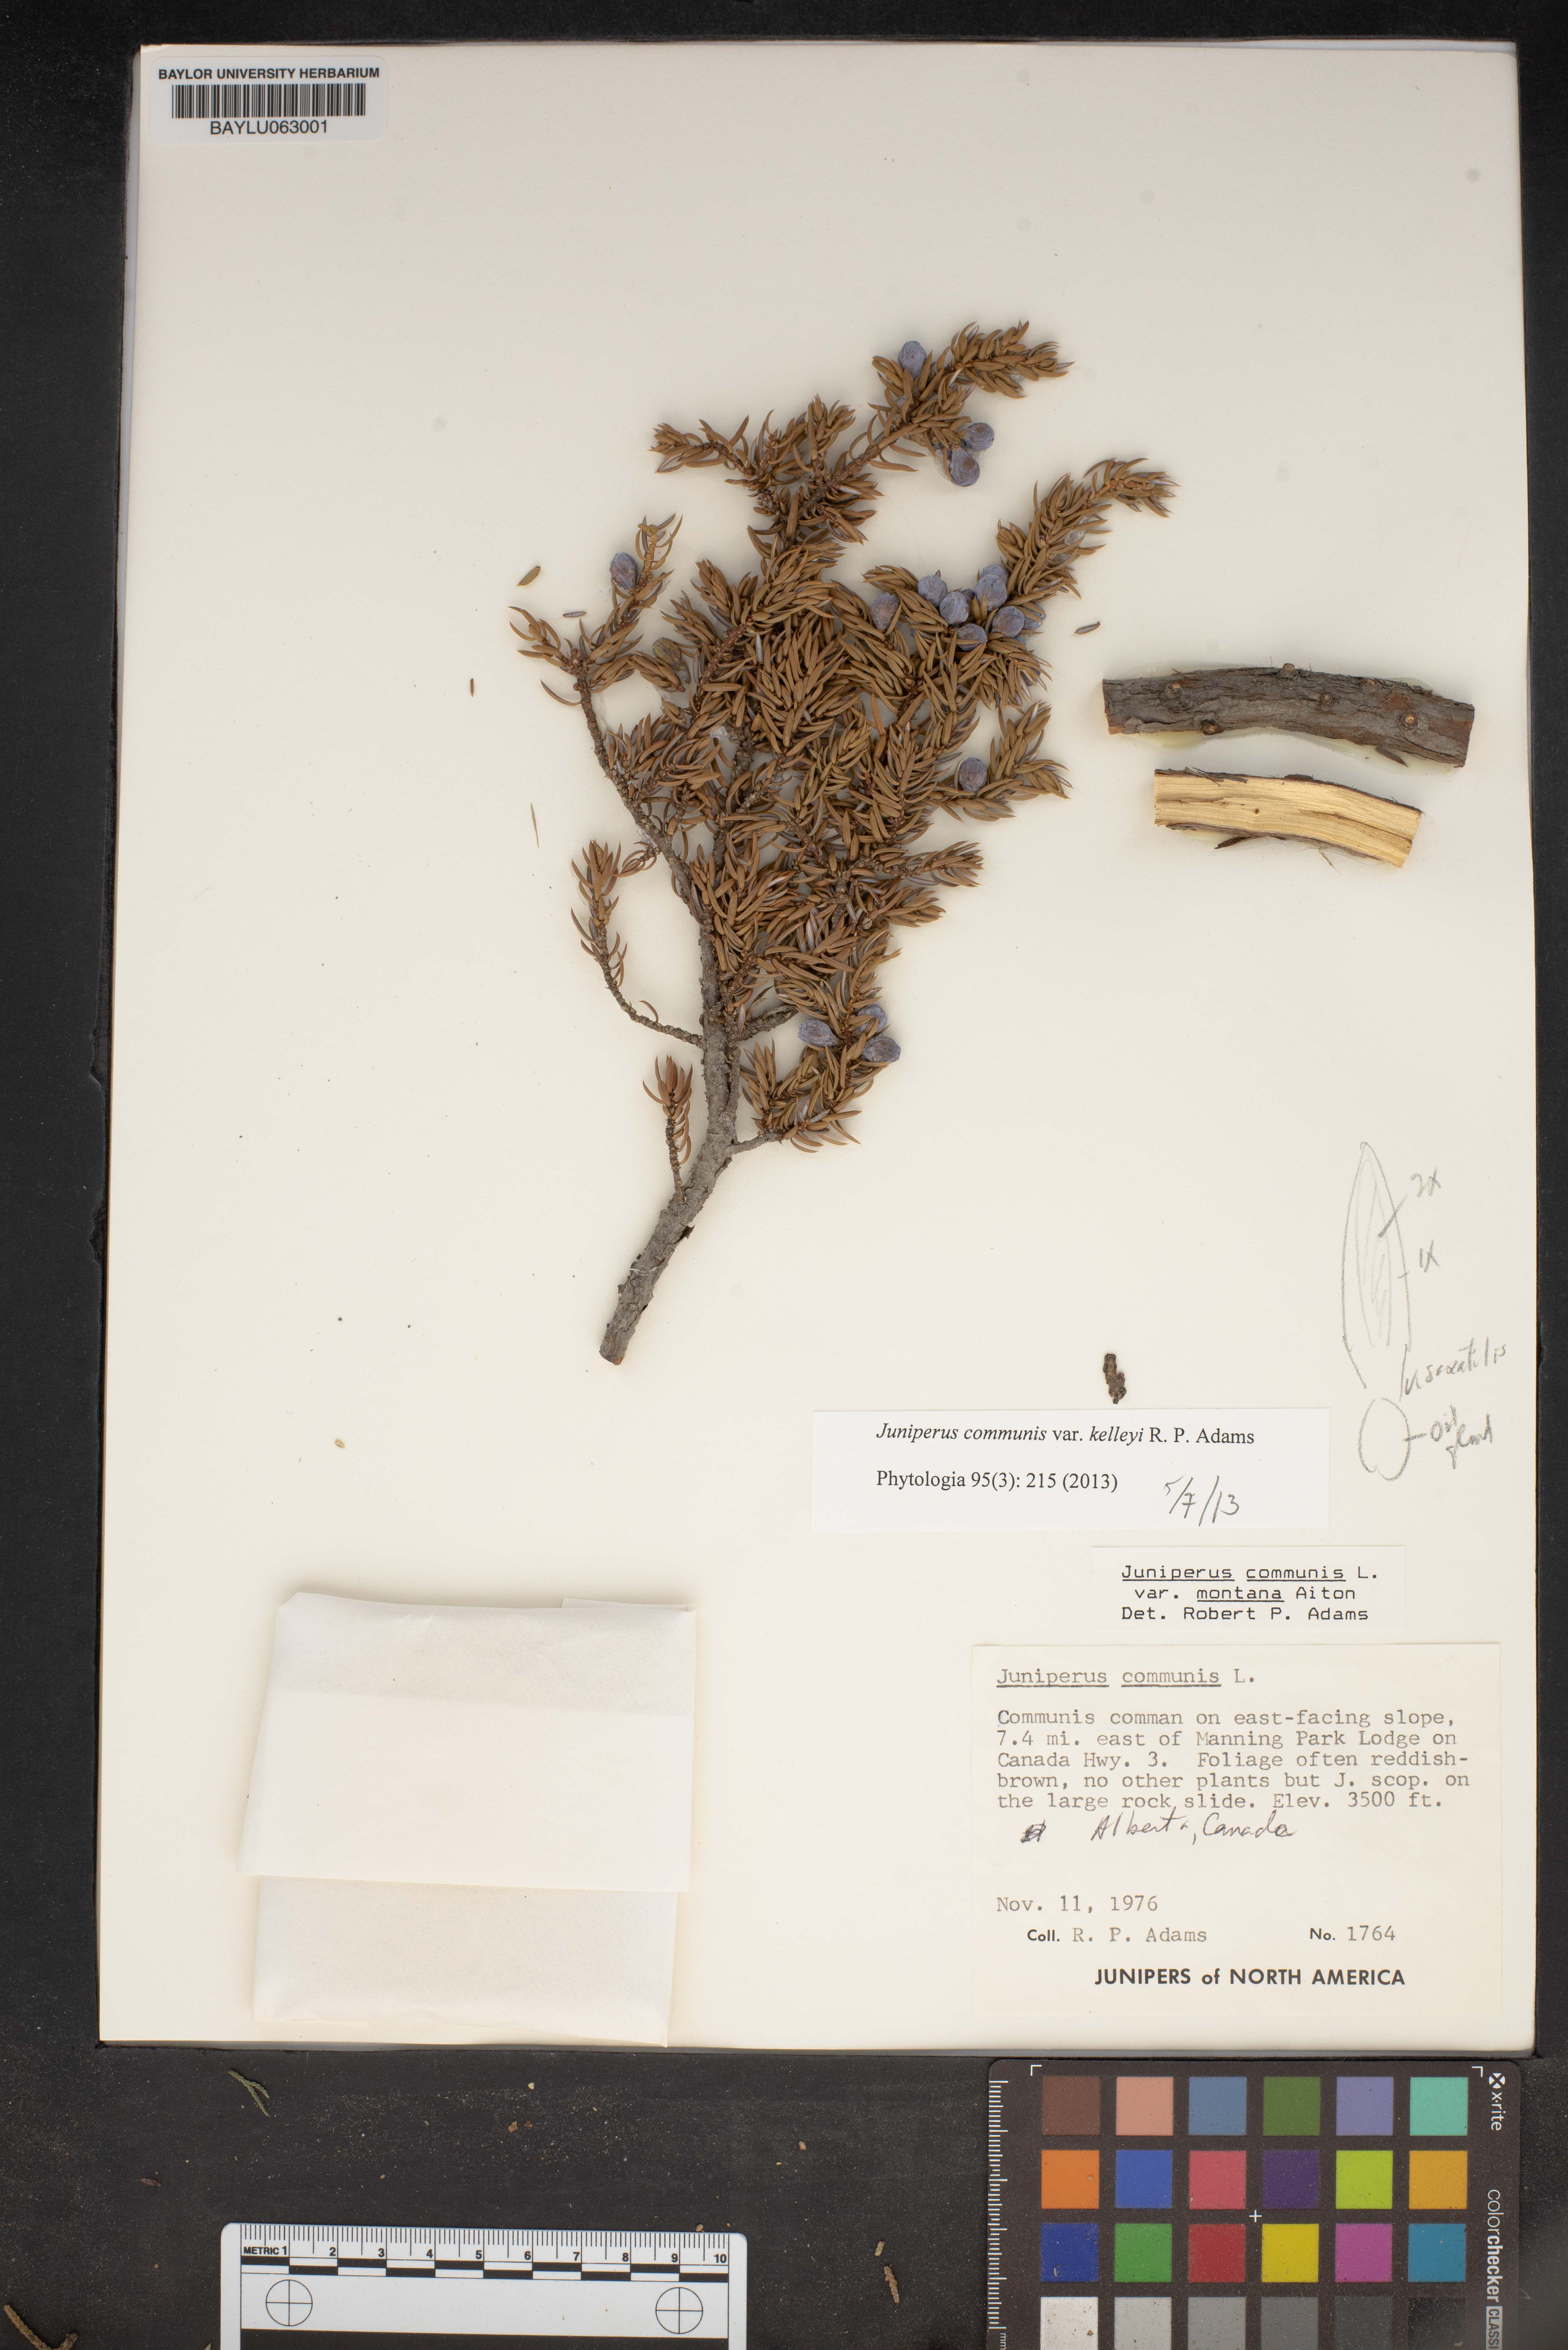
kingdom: Plantae
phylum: Tracheophyta
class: Pinopsida
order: Pinales
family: Cupressaceae
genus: Juniperus
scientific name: Juniperus communis
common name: Common juniper
